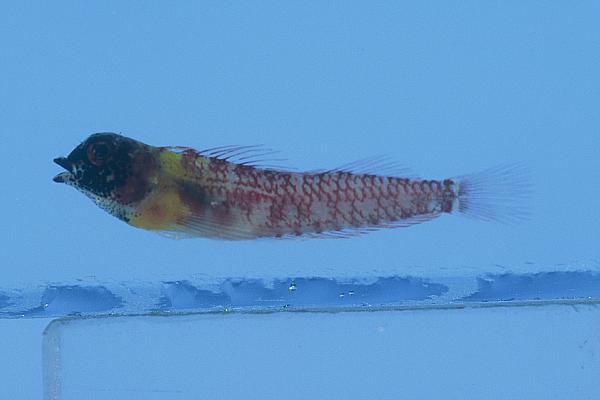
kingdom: Animalia
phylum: Chordata
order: Perciformes
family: Tripterygiidae
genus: Enneapterygius
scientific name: Enneapterygius elaine
